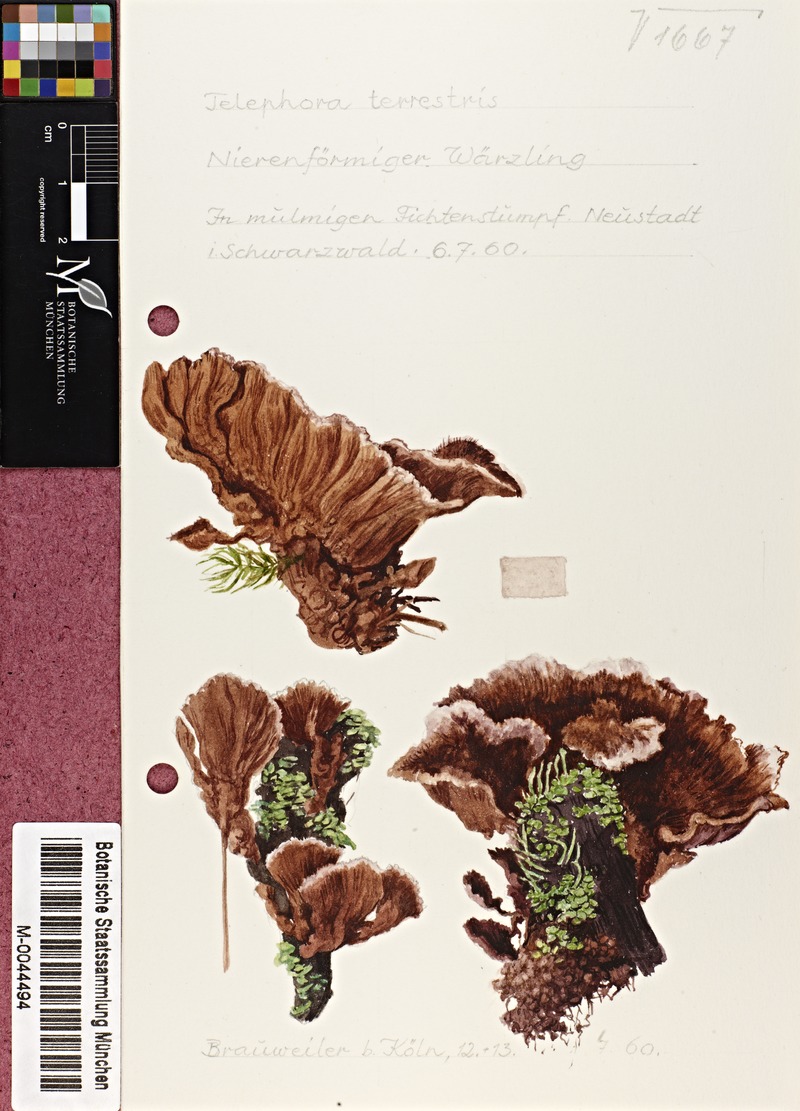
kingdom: Fungi
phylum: Basidiomycota
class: Agaricomycetes
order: Thelephorales
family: Thelephoraceae
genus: Thelephora
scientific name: Thelephora terrestris
